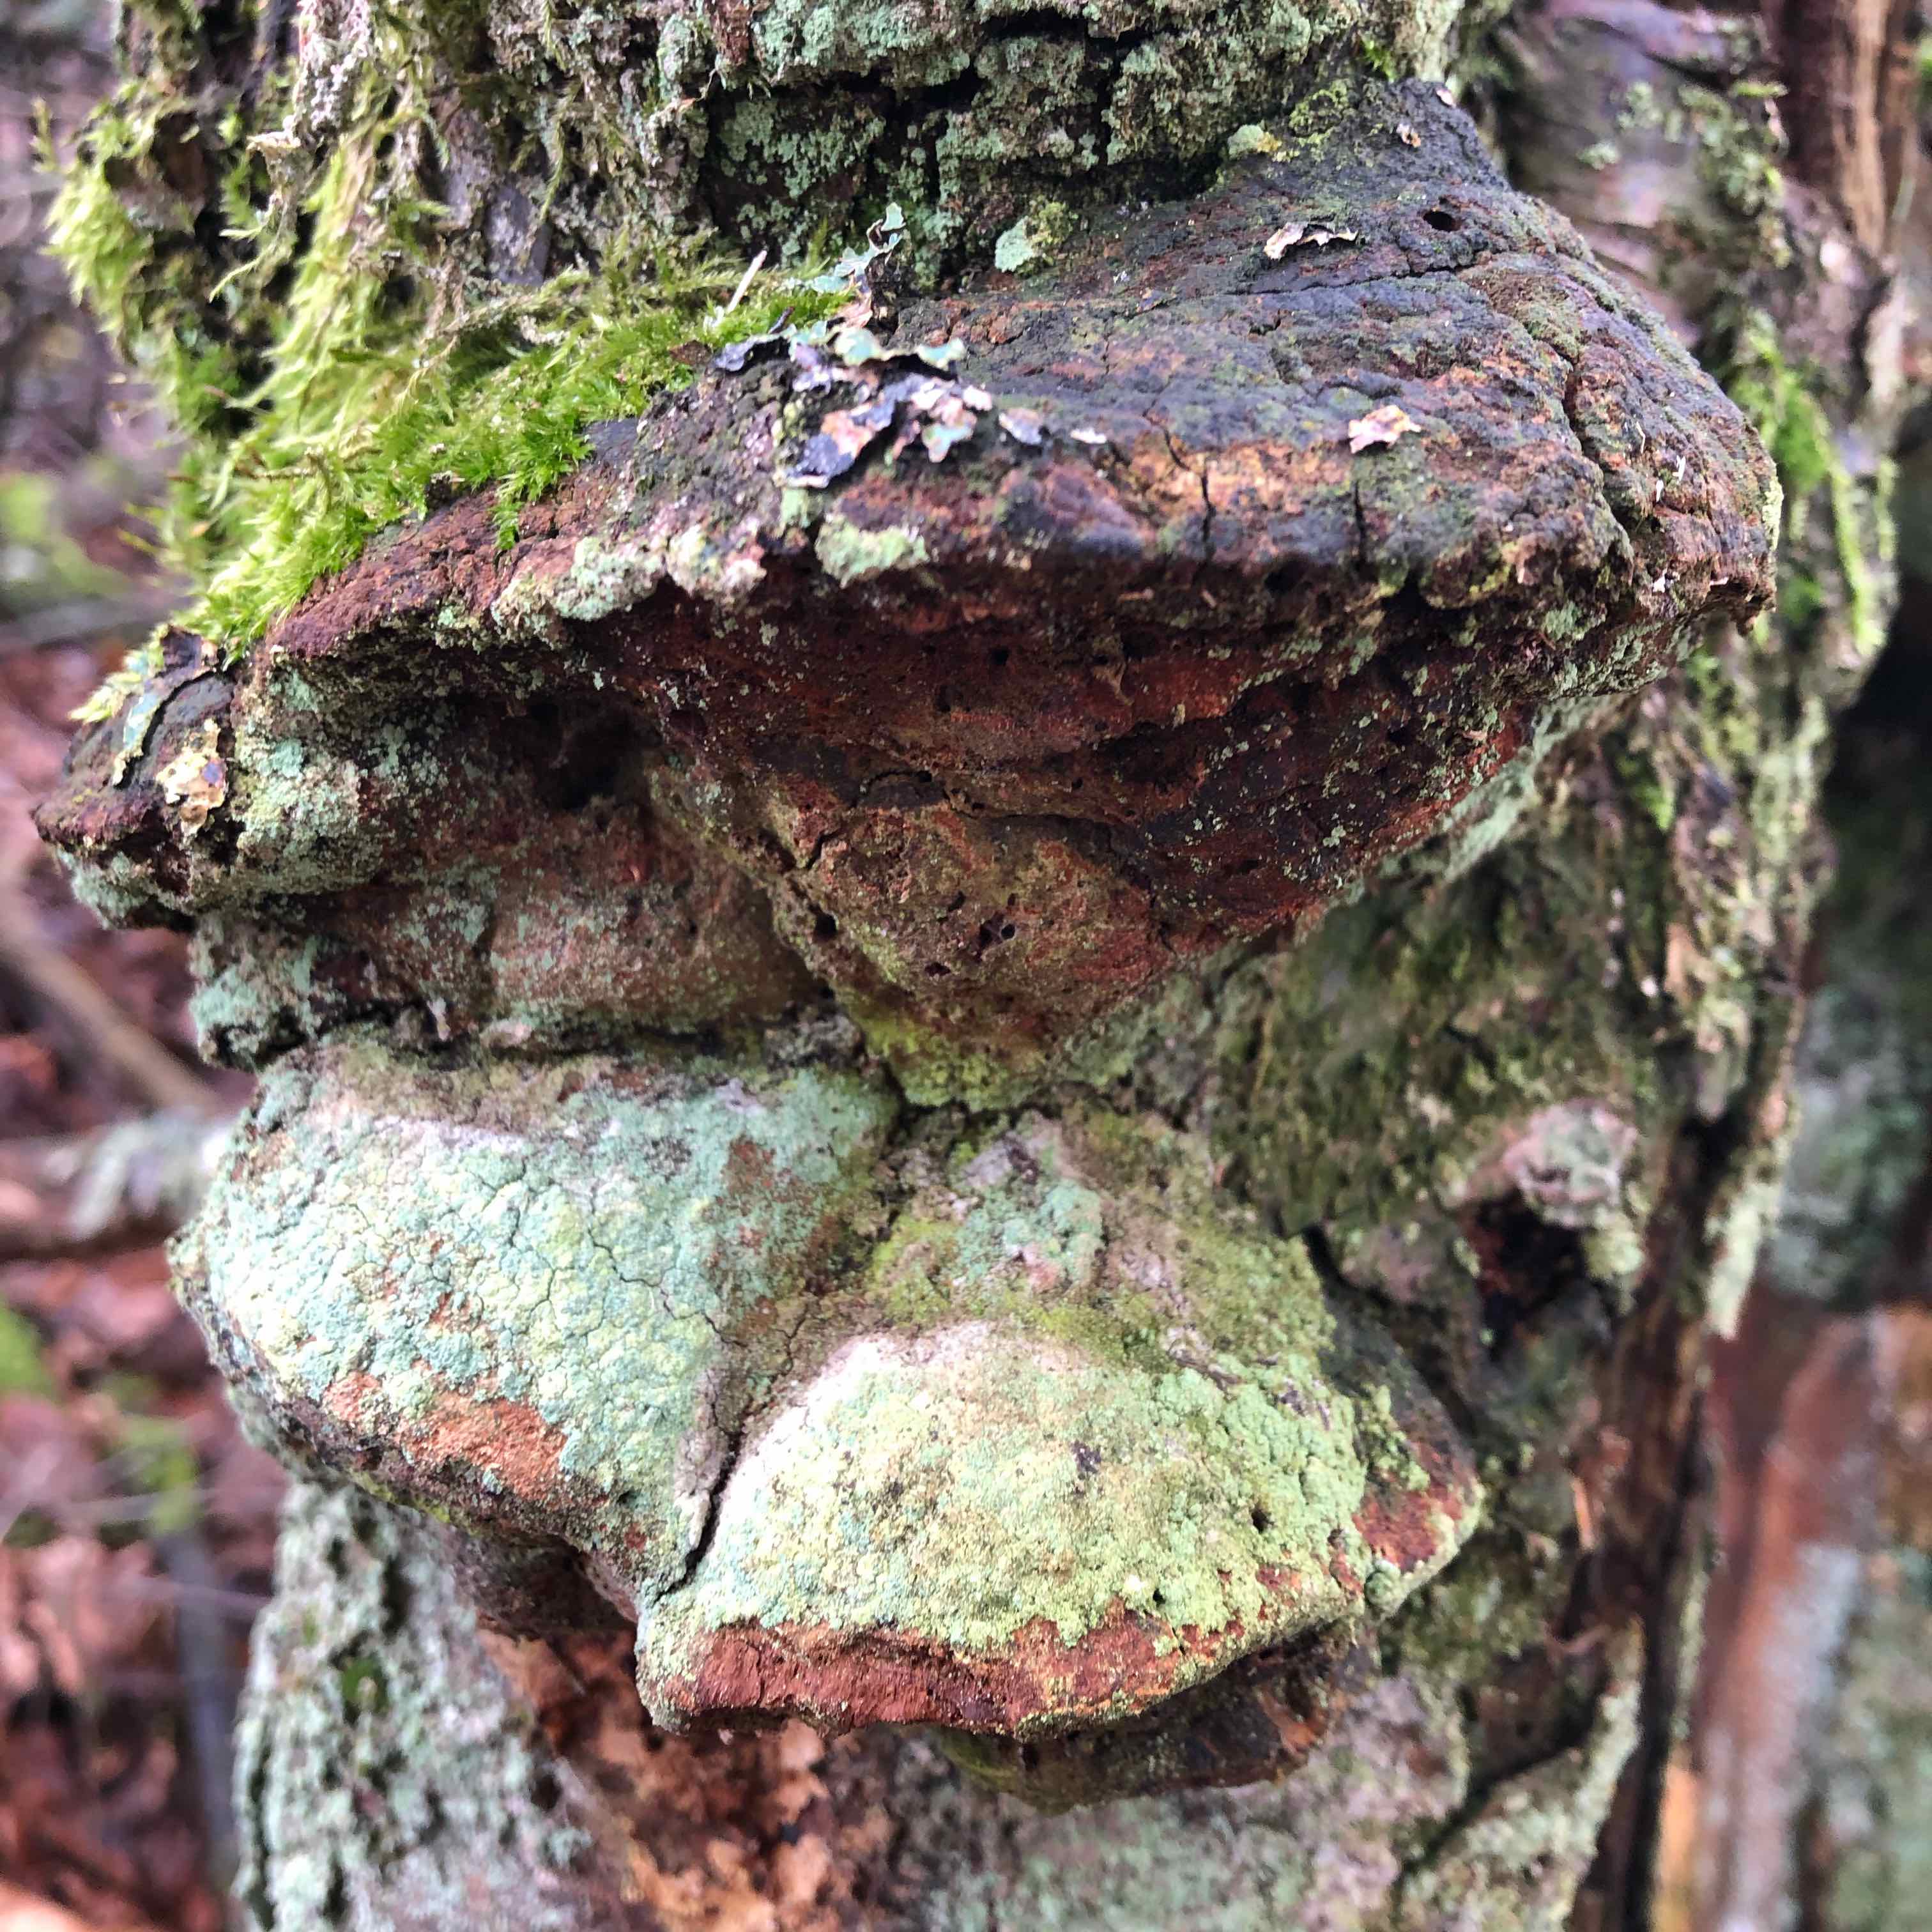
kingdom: Fungi
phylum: Basidiomycota
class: Agaricomycetes
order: Polyporales
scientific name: Polyporales
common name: poresvampordenen
